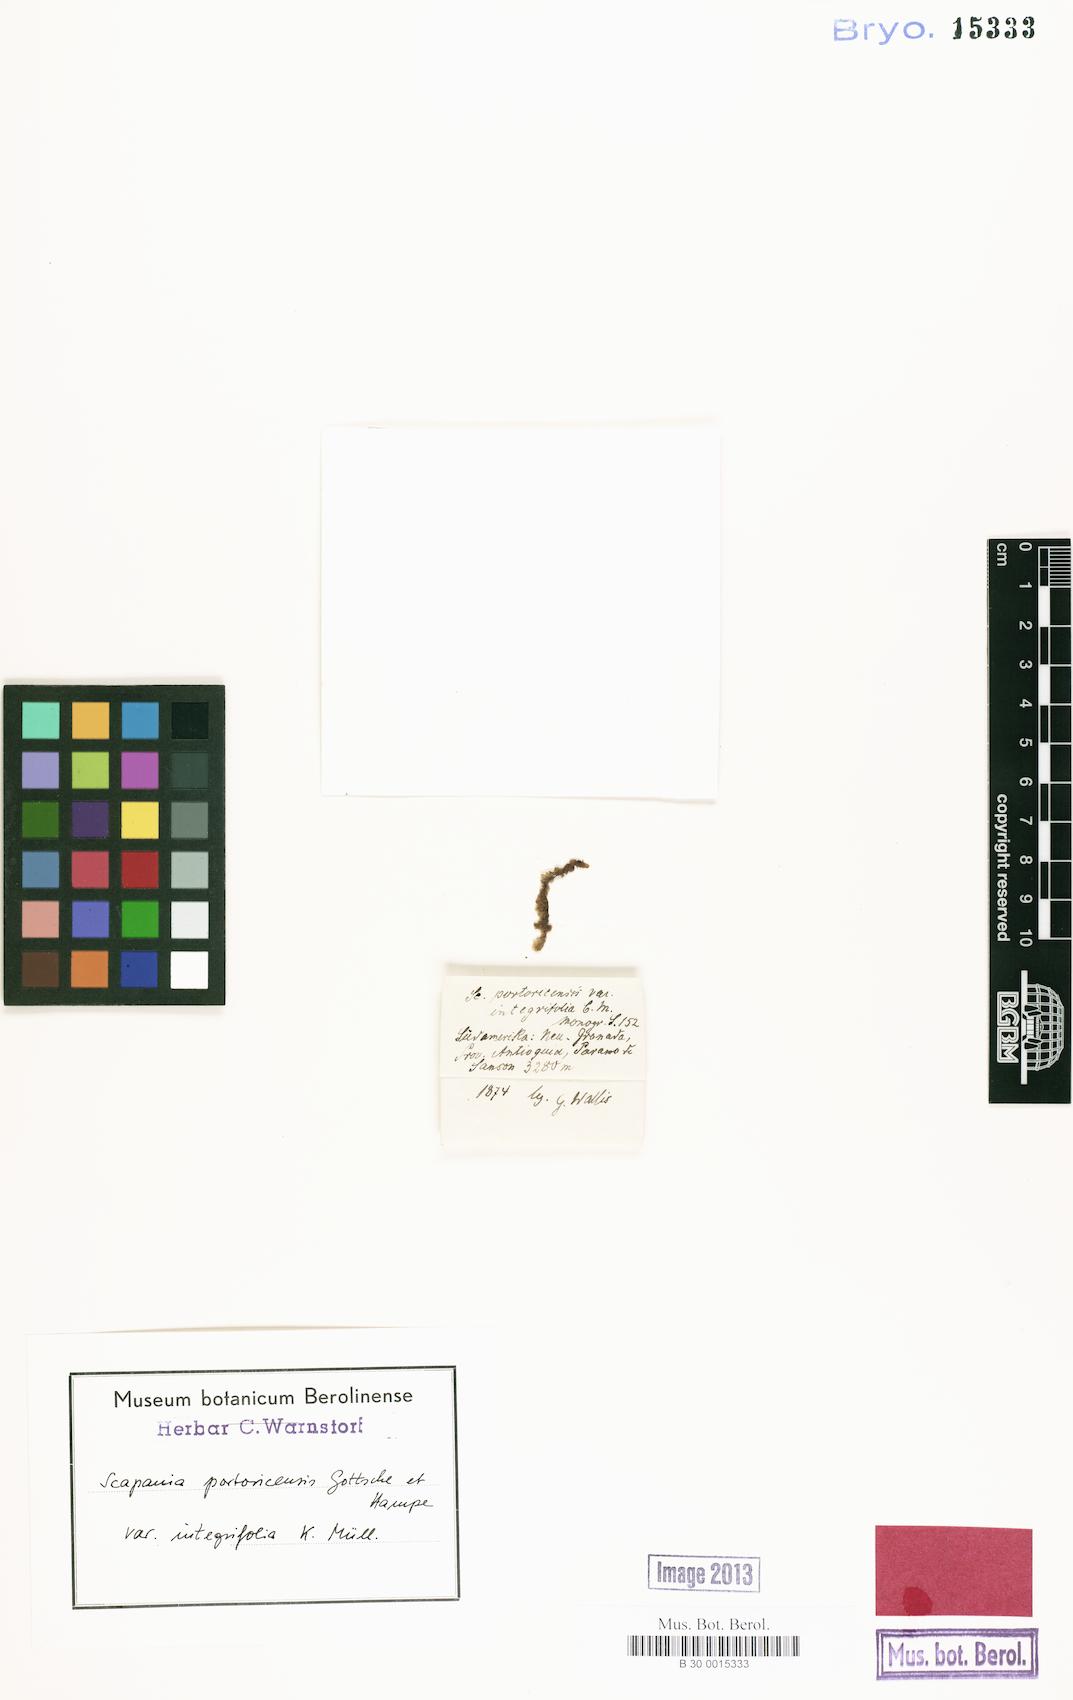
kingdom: Plantae
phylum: Marchantiophyta
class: Jungermanniopsida
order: Jungermanniales
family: Scapaniaceae
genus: Scapania
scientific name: Scapania portoricensis
